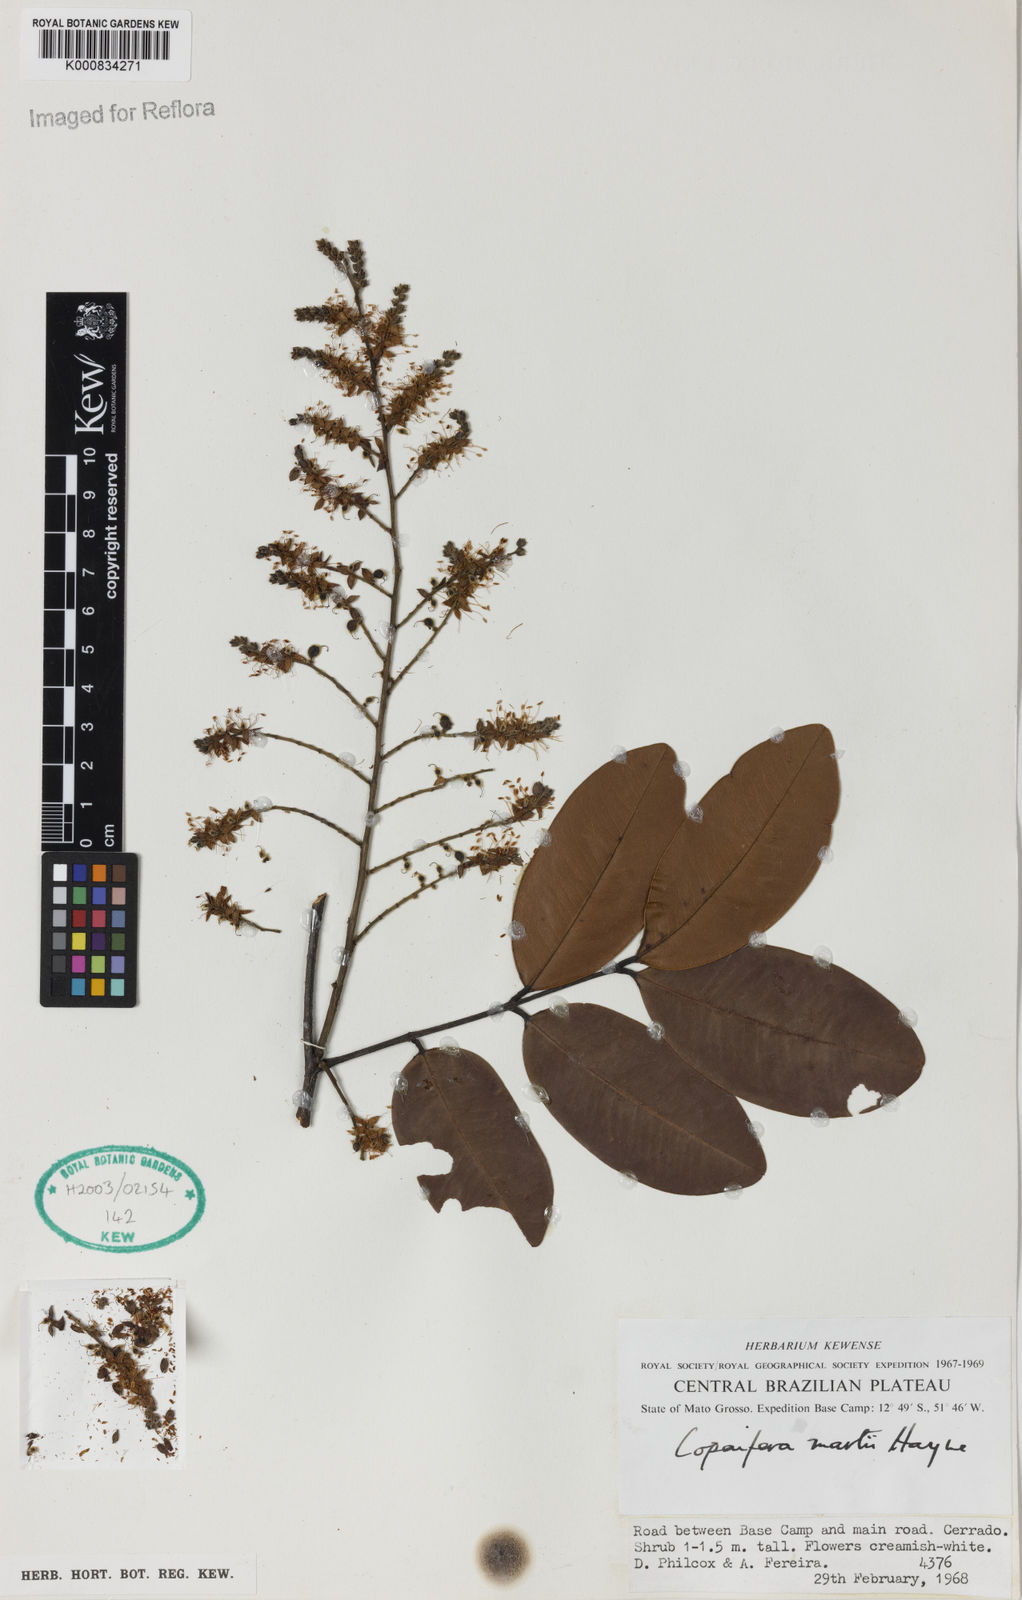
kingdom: Plantae
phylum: Tracheophyta
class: Magnoliopsida
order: Fabales
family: Fabaceae
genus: Copaifera
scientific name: Copaifera martii
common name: Copaiba
